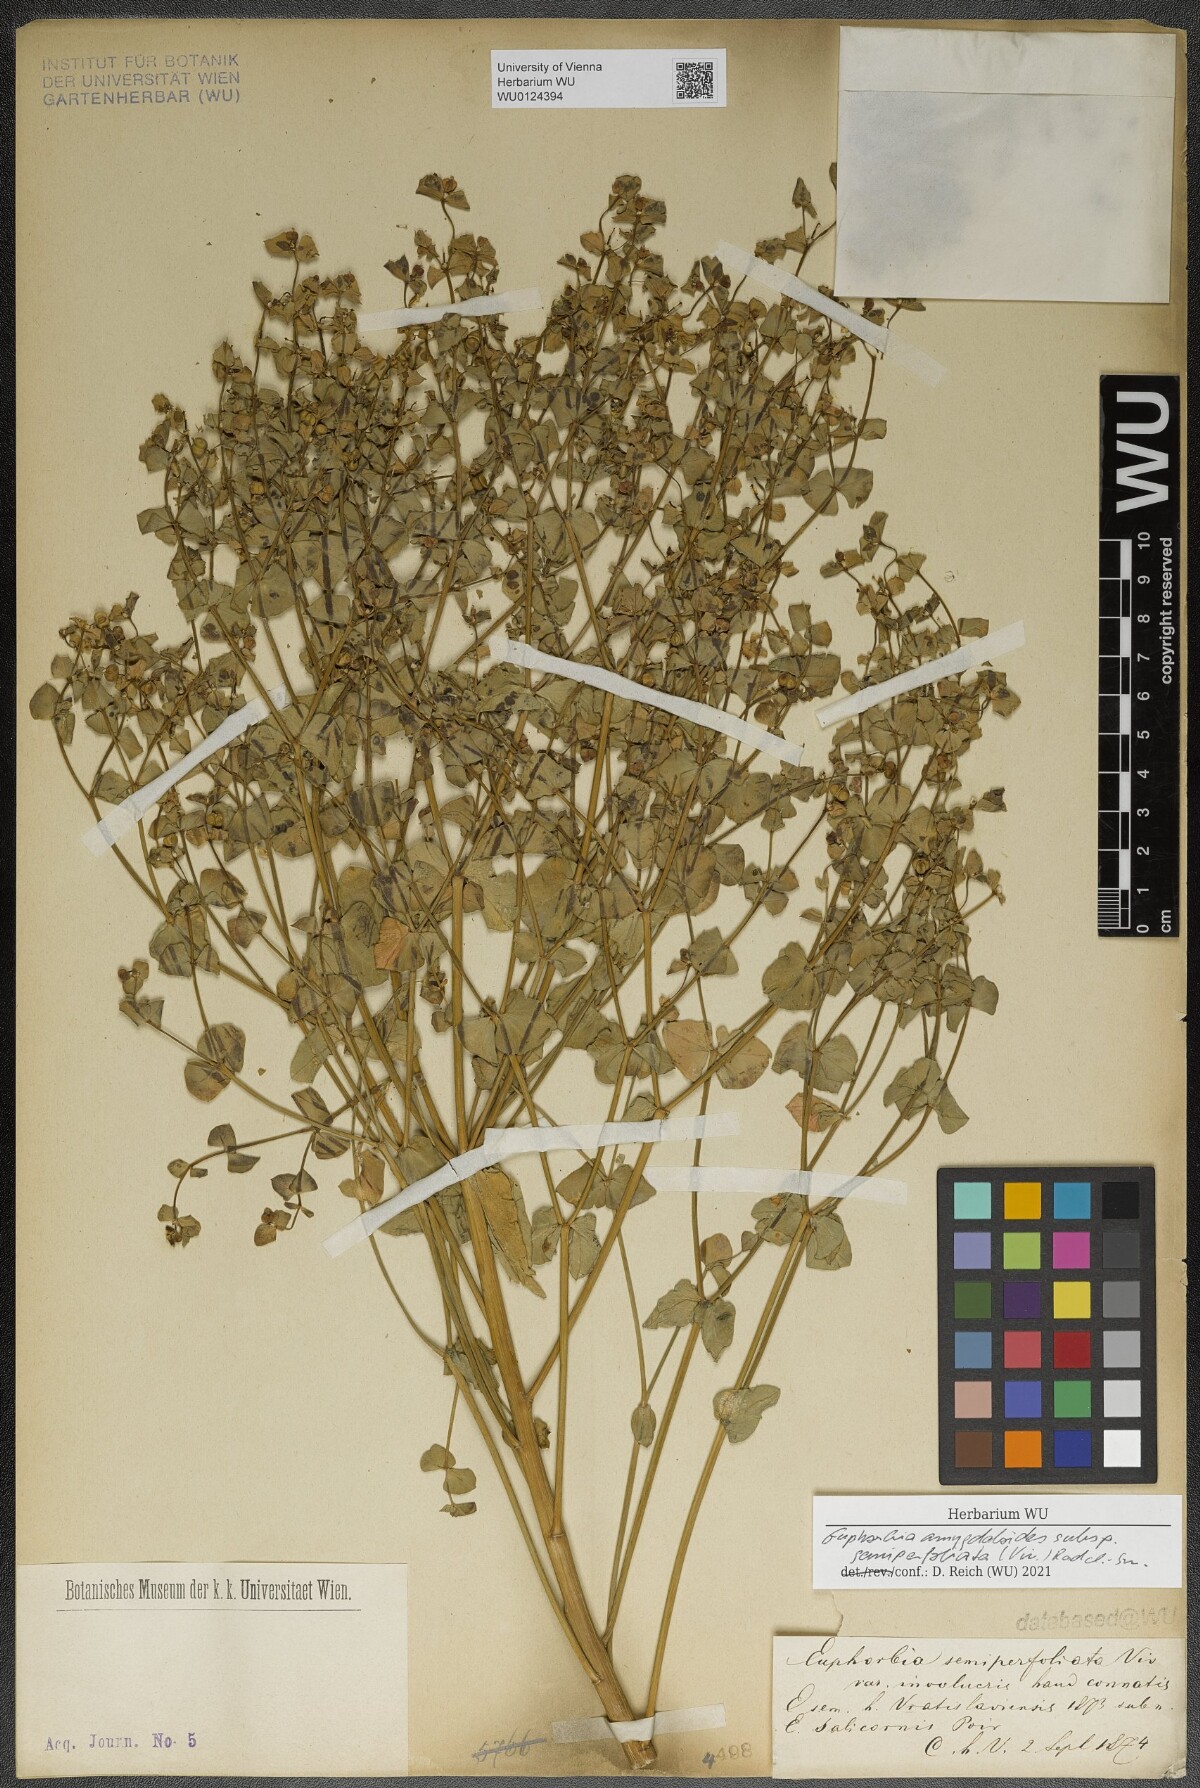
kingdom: Plantae
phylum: Tracheophyta
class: Magnoliopsida
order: Malpighiales
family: Euphorbiaceae
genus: Euphorbia
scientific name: Euphorbia semiperfoliata
